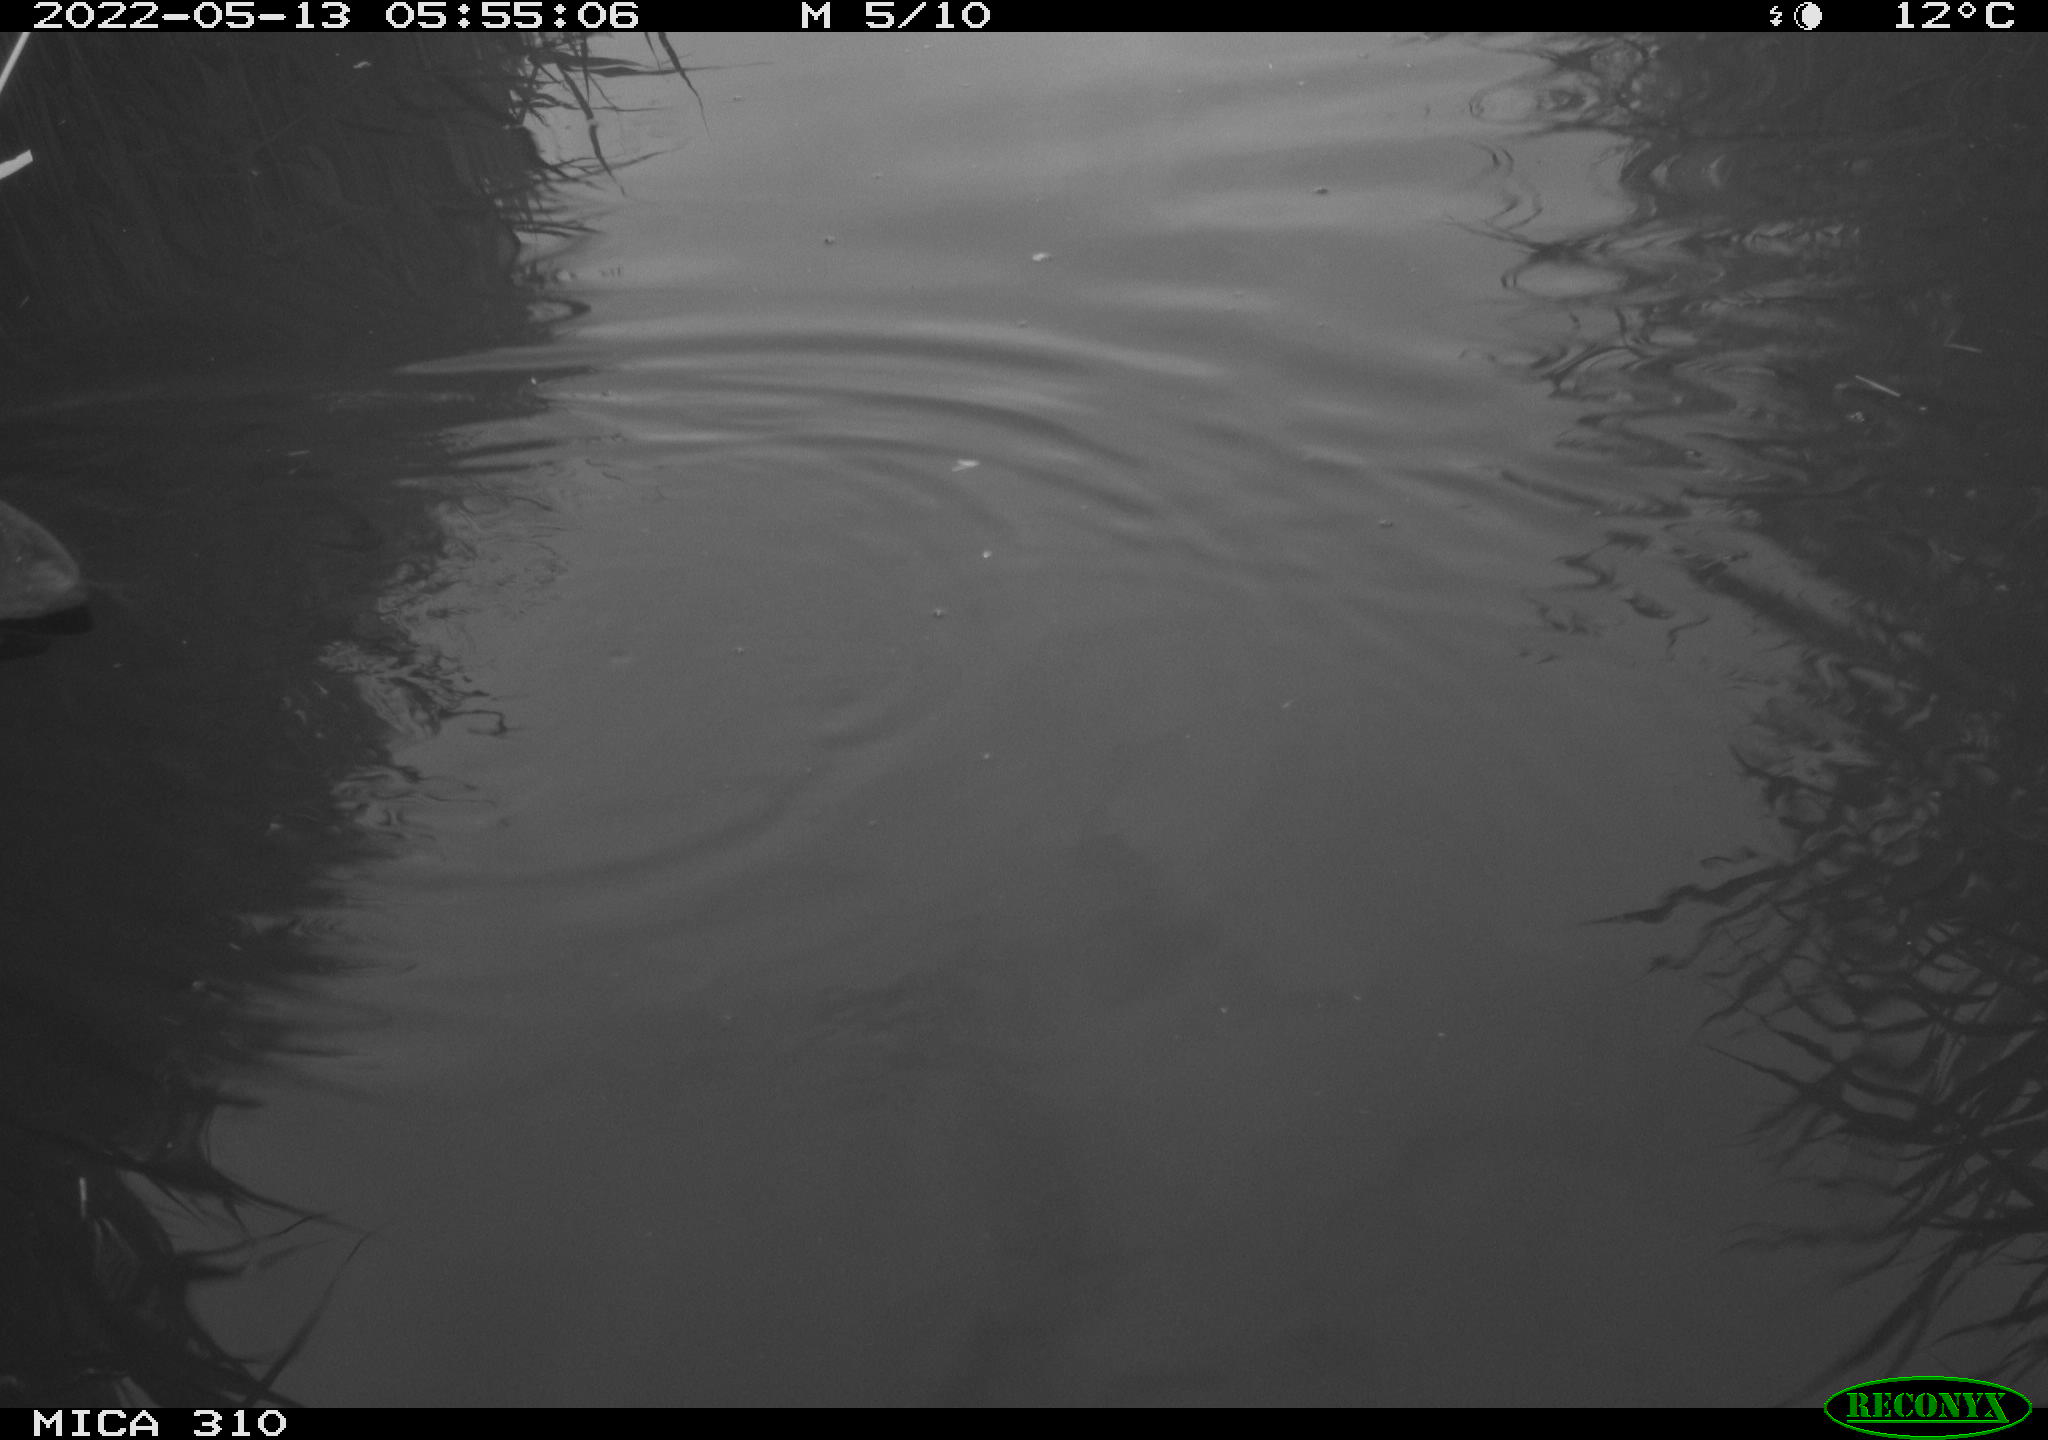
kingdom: Animalia
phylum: Chordata
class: Aves
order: Gruiformes
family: Rallidae
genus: Fulica
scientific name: Fulica atra
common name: Eurasian coot
